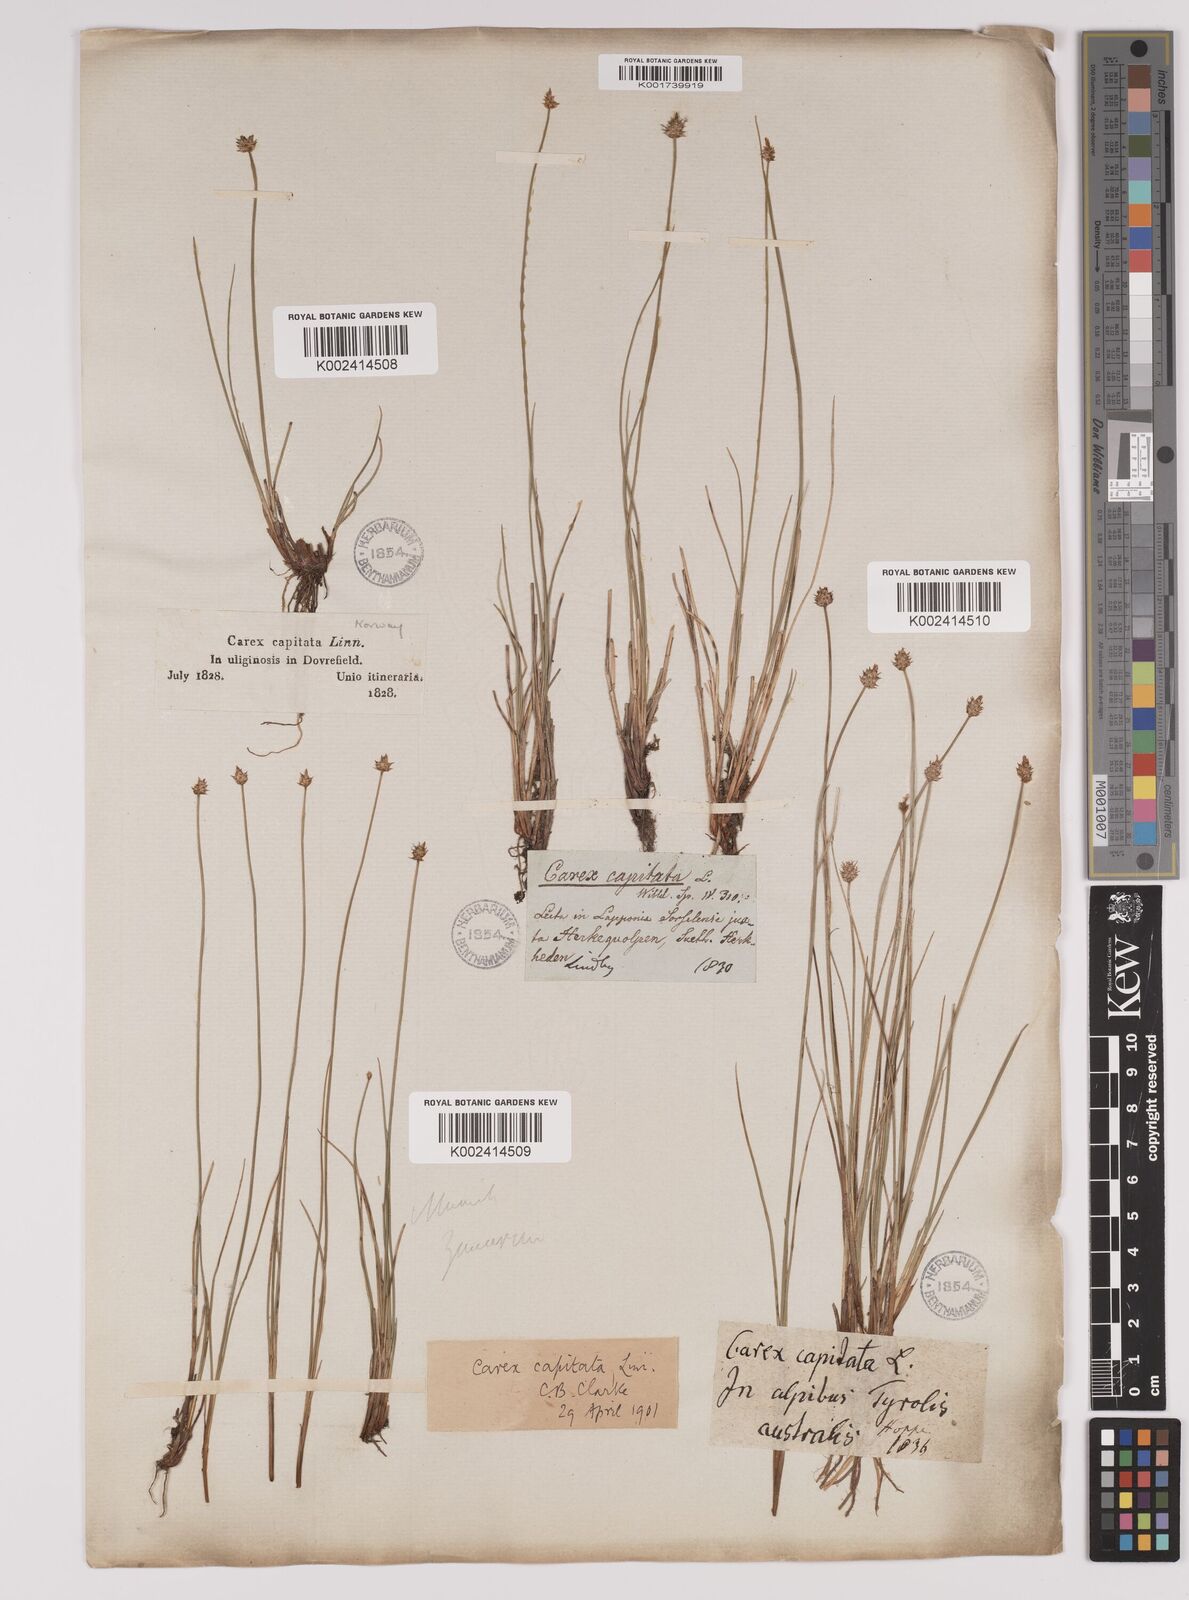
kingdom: Plantae
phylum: Tracheophyta
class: Liliopsida
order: Poales
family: Cyperaceae
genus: Carex
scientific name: Carex capitata
